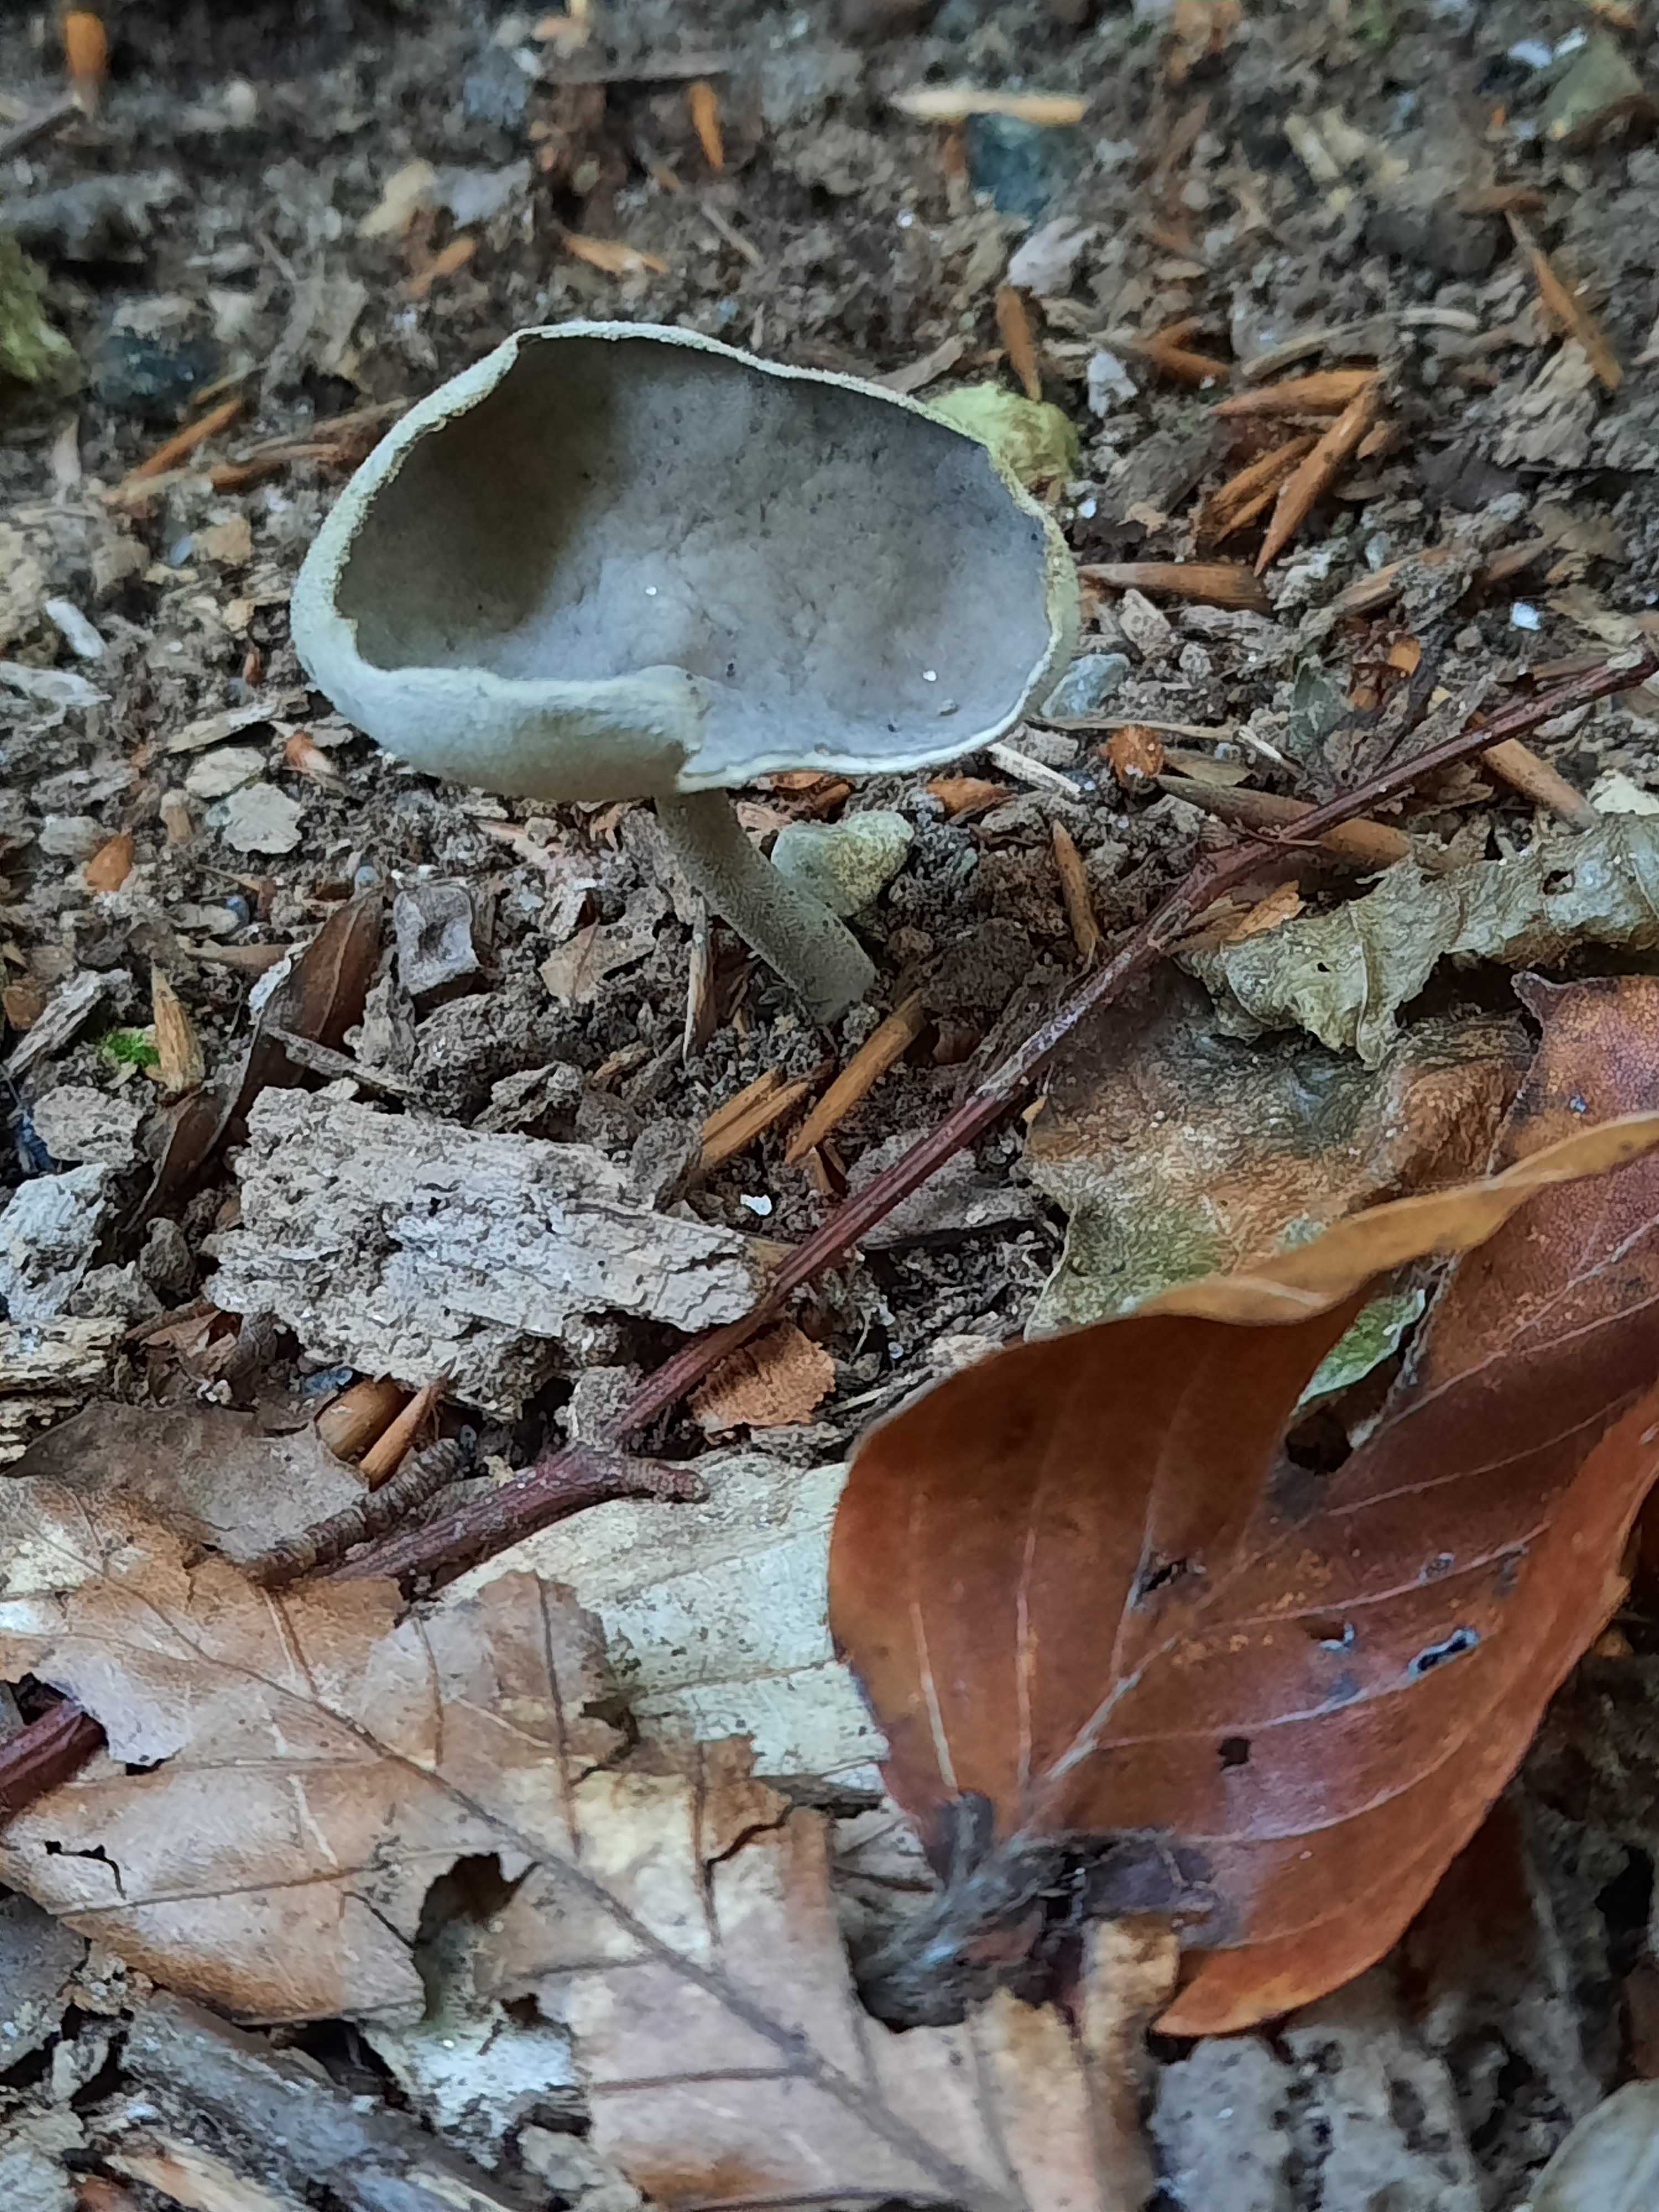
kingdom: Fungi
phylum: Ascomycota
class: Pezizomycetes
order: Pezizales
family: Helvellaceae
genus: Helvella
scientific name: Helvella macropus
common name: højstokket foldhat
